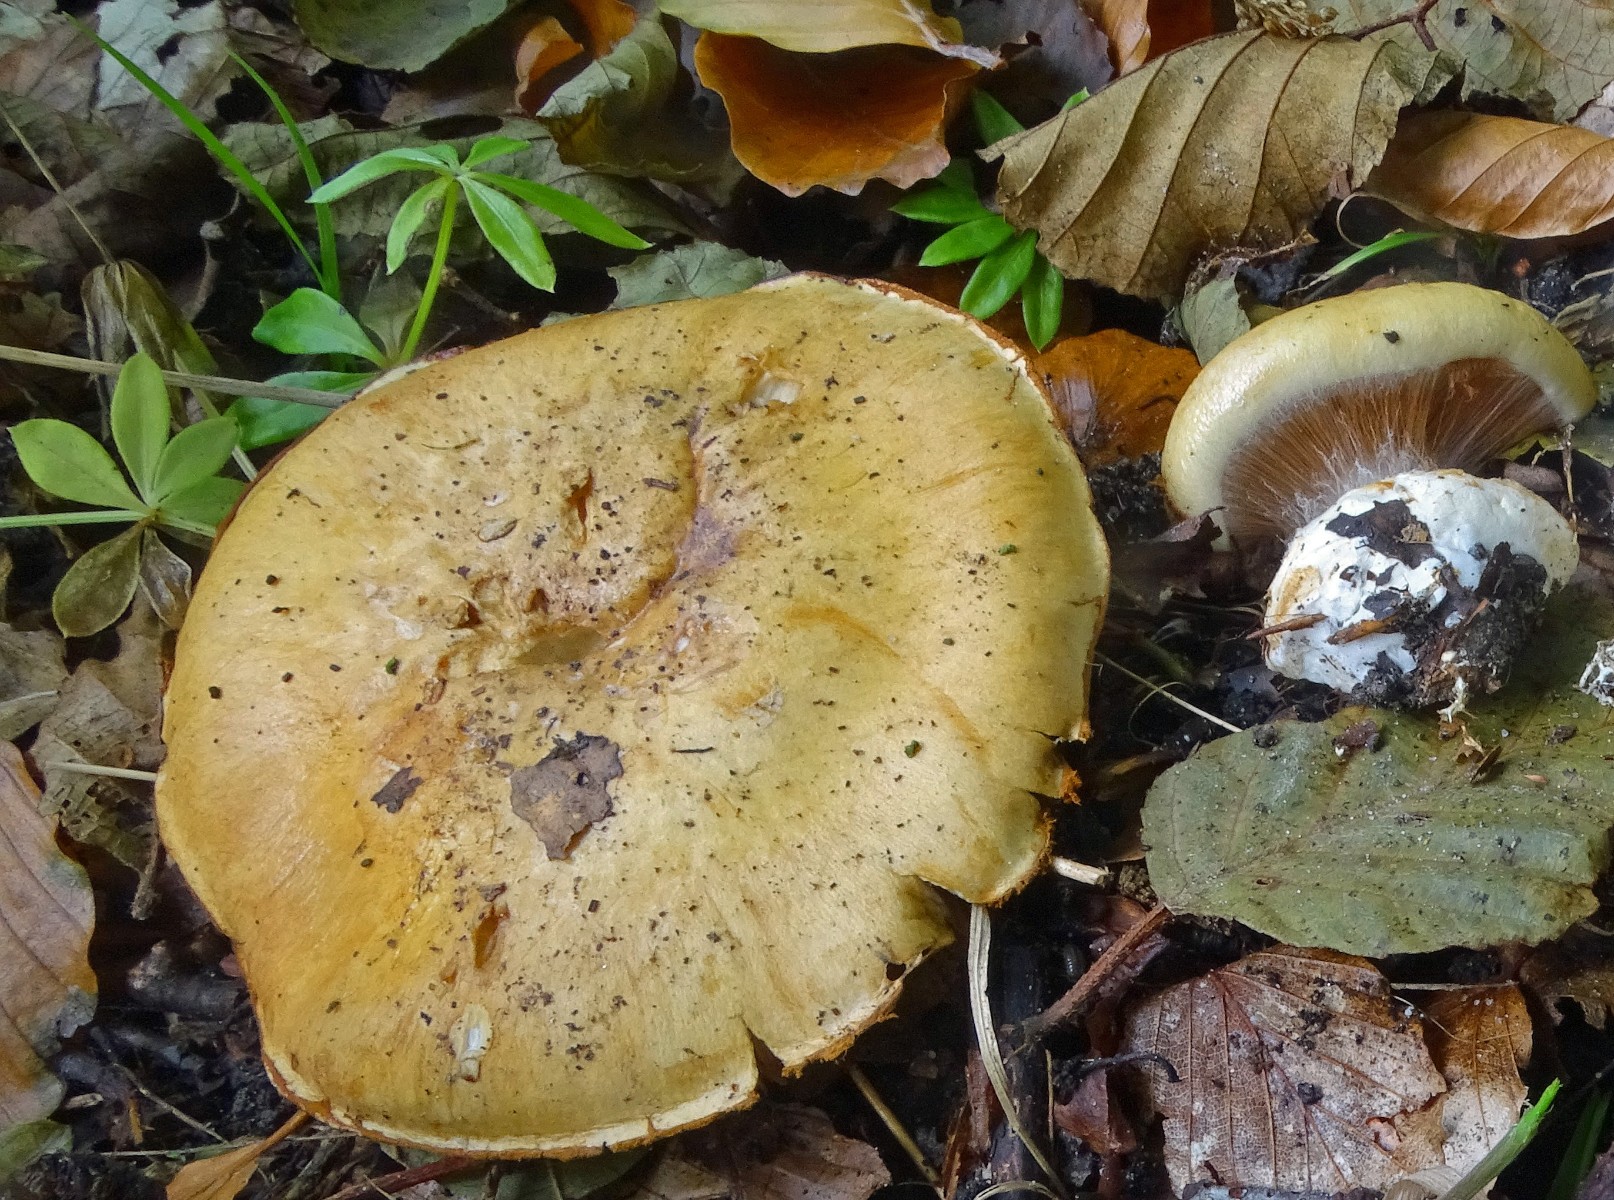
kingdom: Fungi
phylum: Basidiomycota
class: Agaricomycetes
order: Agaricales
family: Cortinariaceae
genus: Cortinarius
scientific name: Cortinarius anserinus
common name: bøge-slørhat
